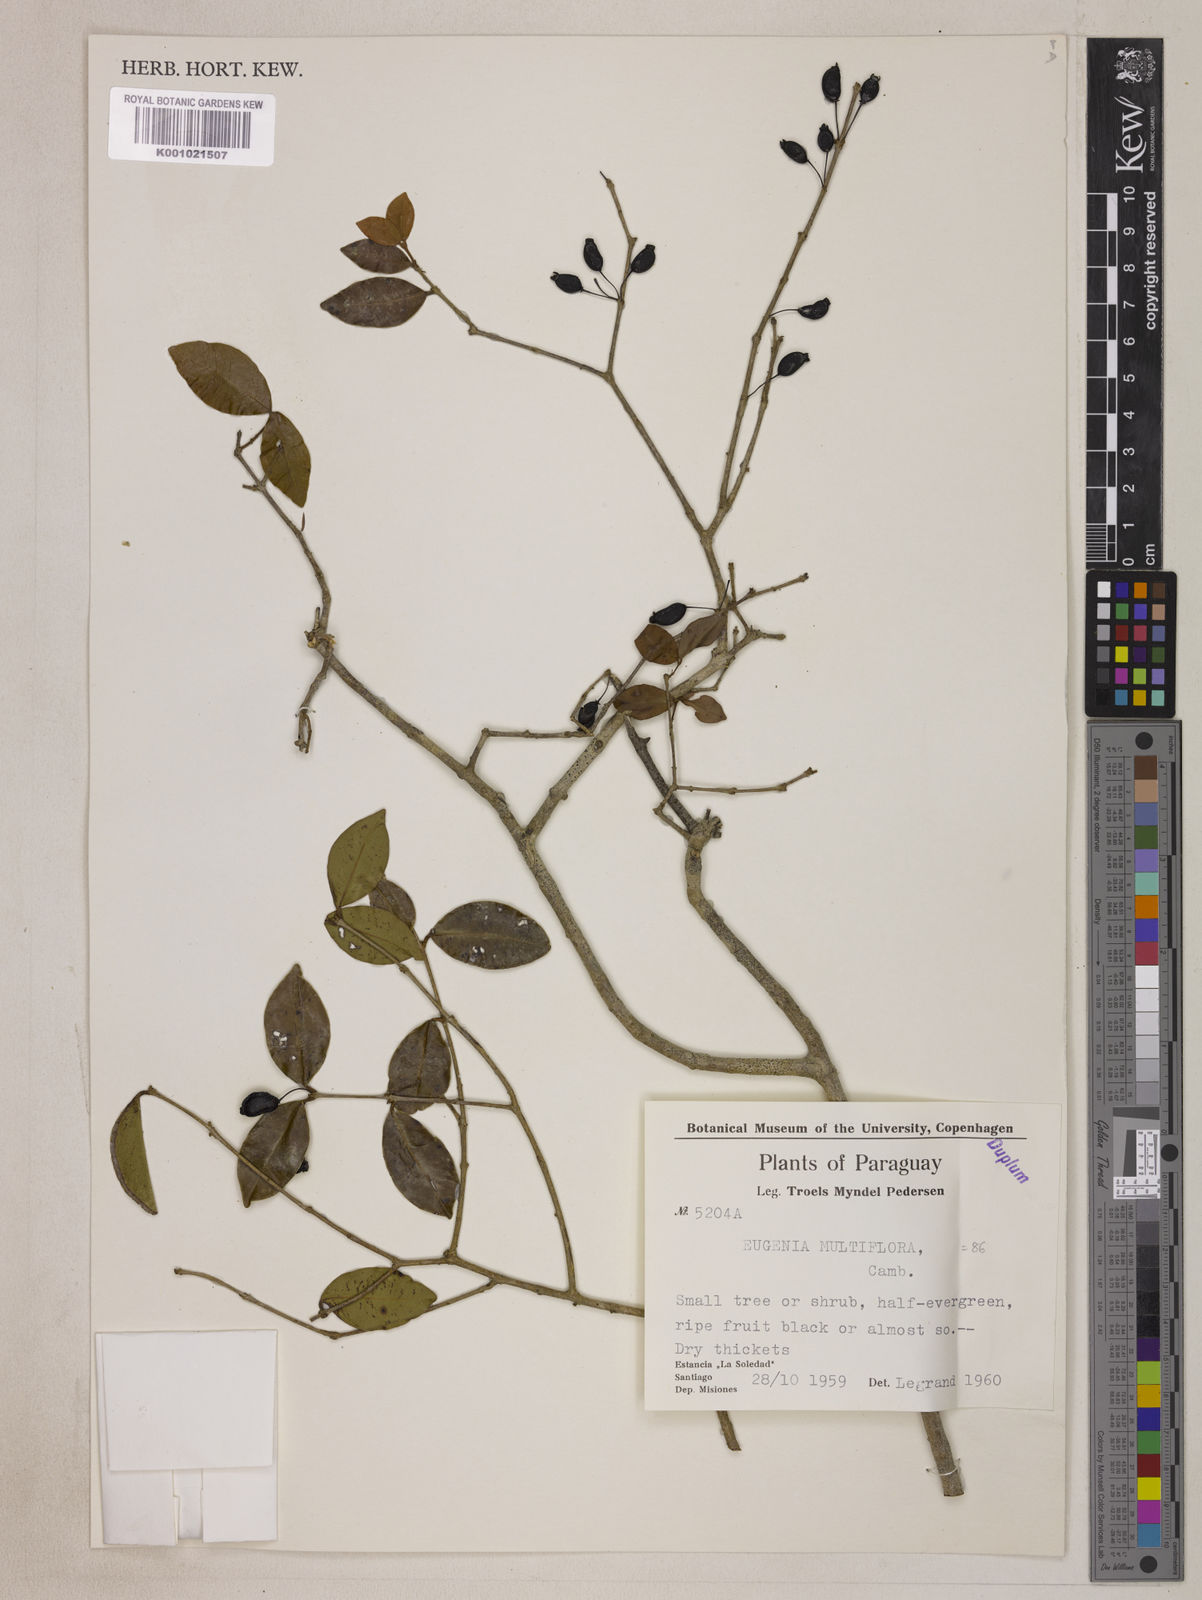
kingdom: Plantae
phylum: Tracheophyta
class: Magnoliopsida
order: Myrtales
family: Myrtaceae
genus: Eugenia
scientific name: Eugenia hiemalis
